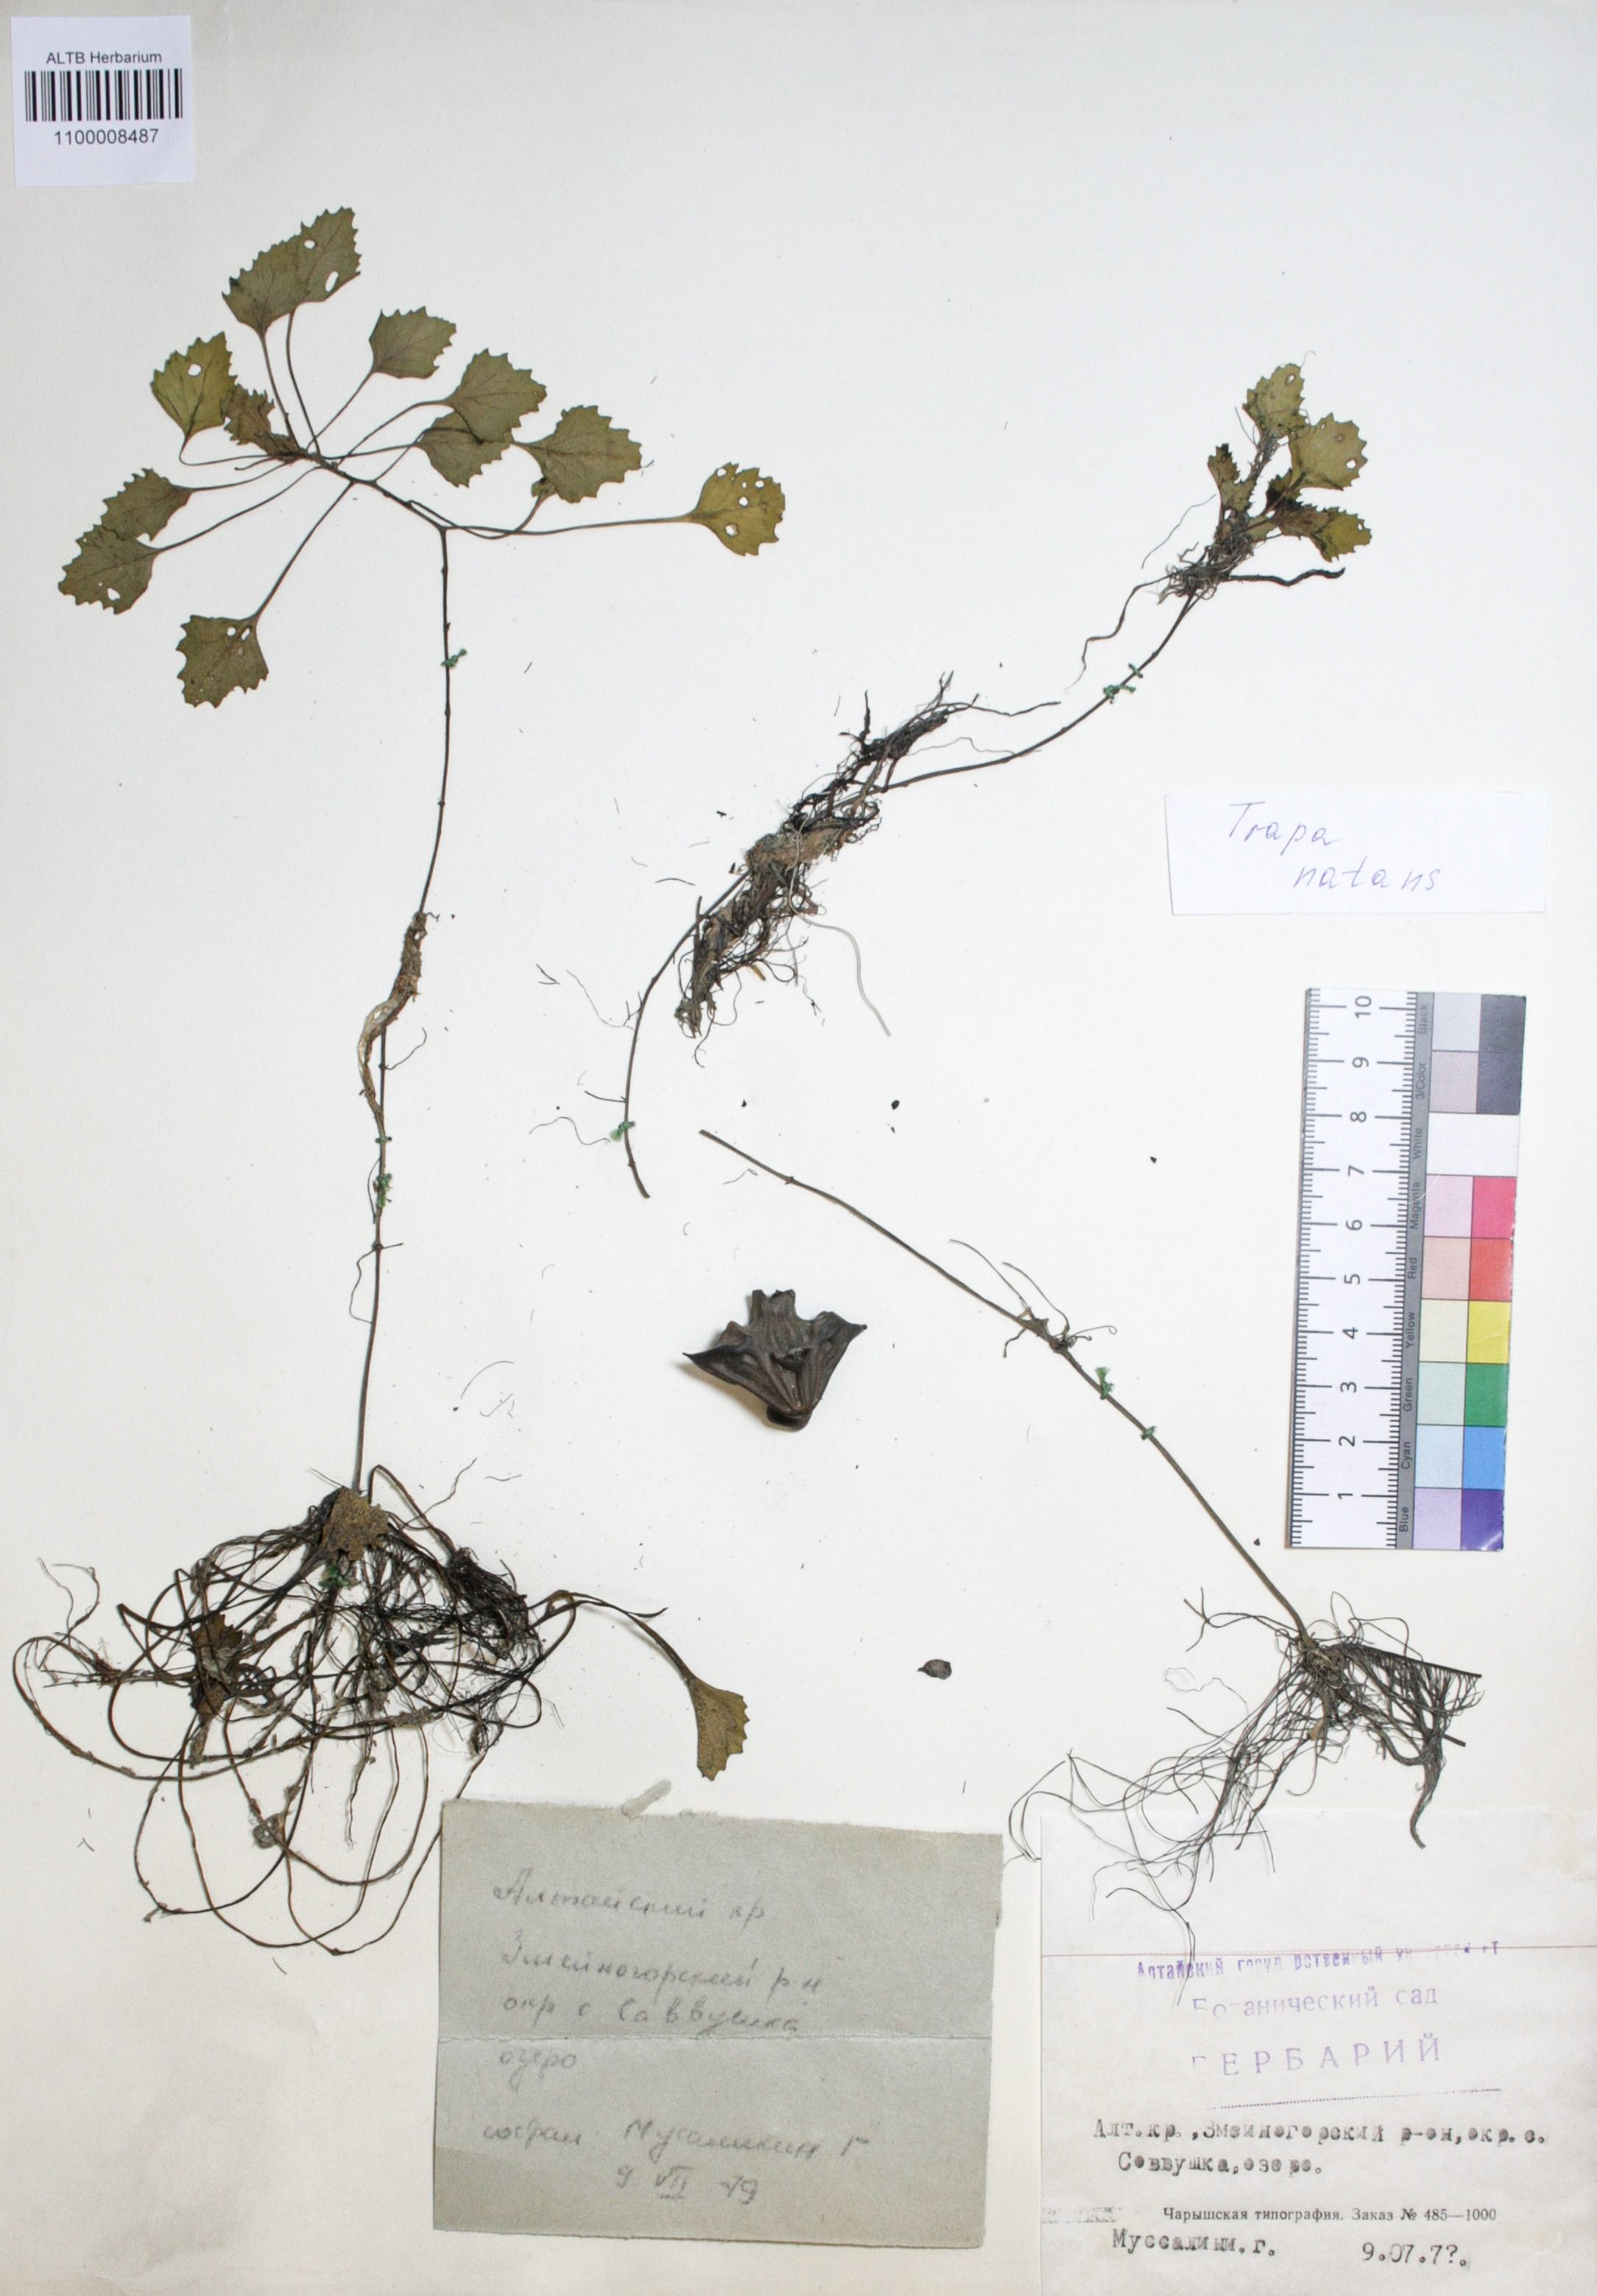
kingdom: Plantae
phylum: Tracheophyta
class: Magnoliopsida
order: Myrtales
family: Lythraceae
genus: Trapa
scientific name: Trapa natans
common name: Water chestnut
